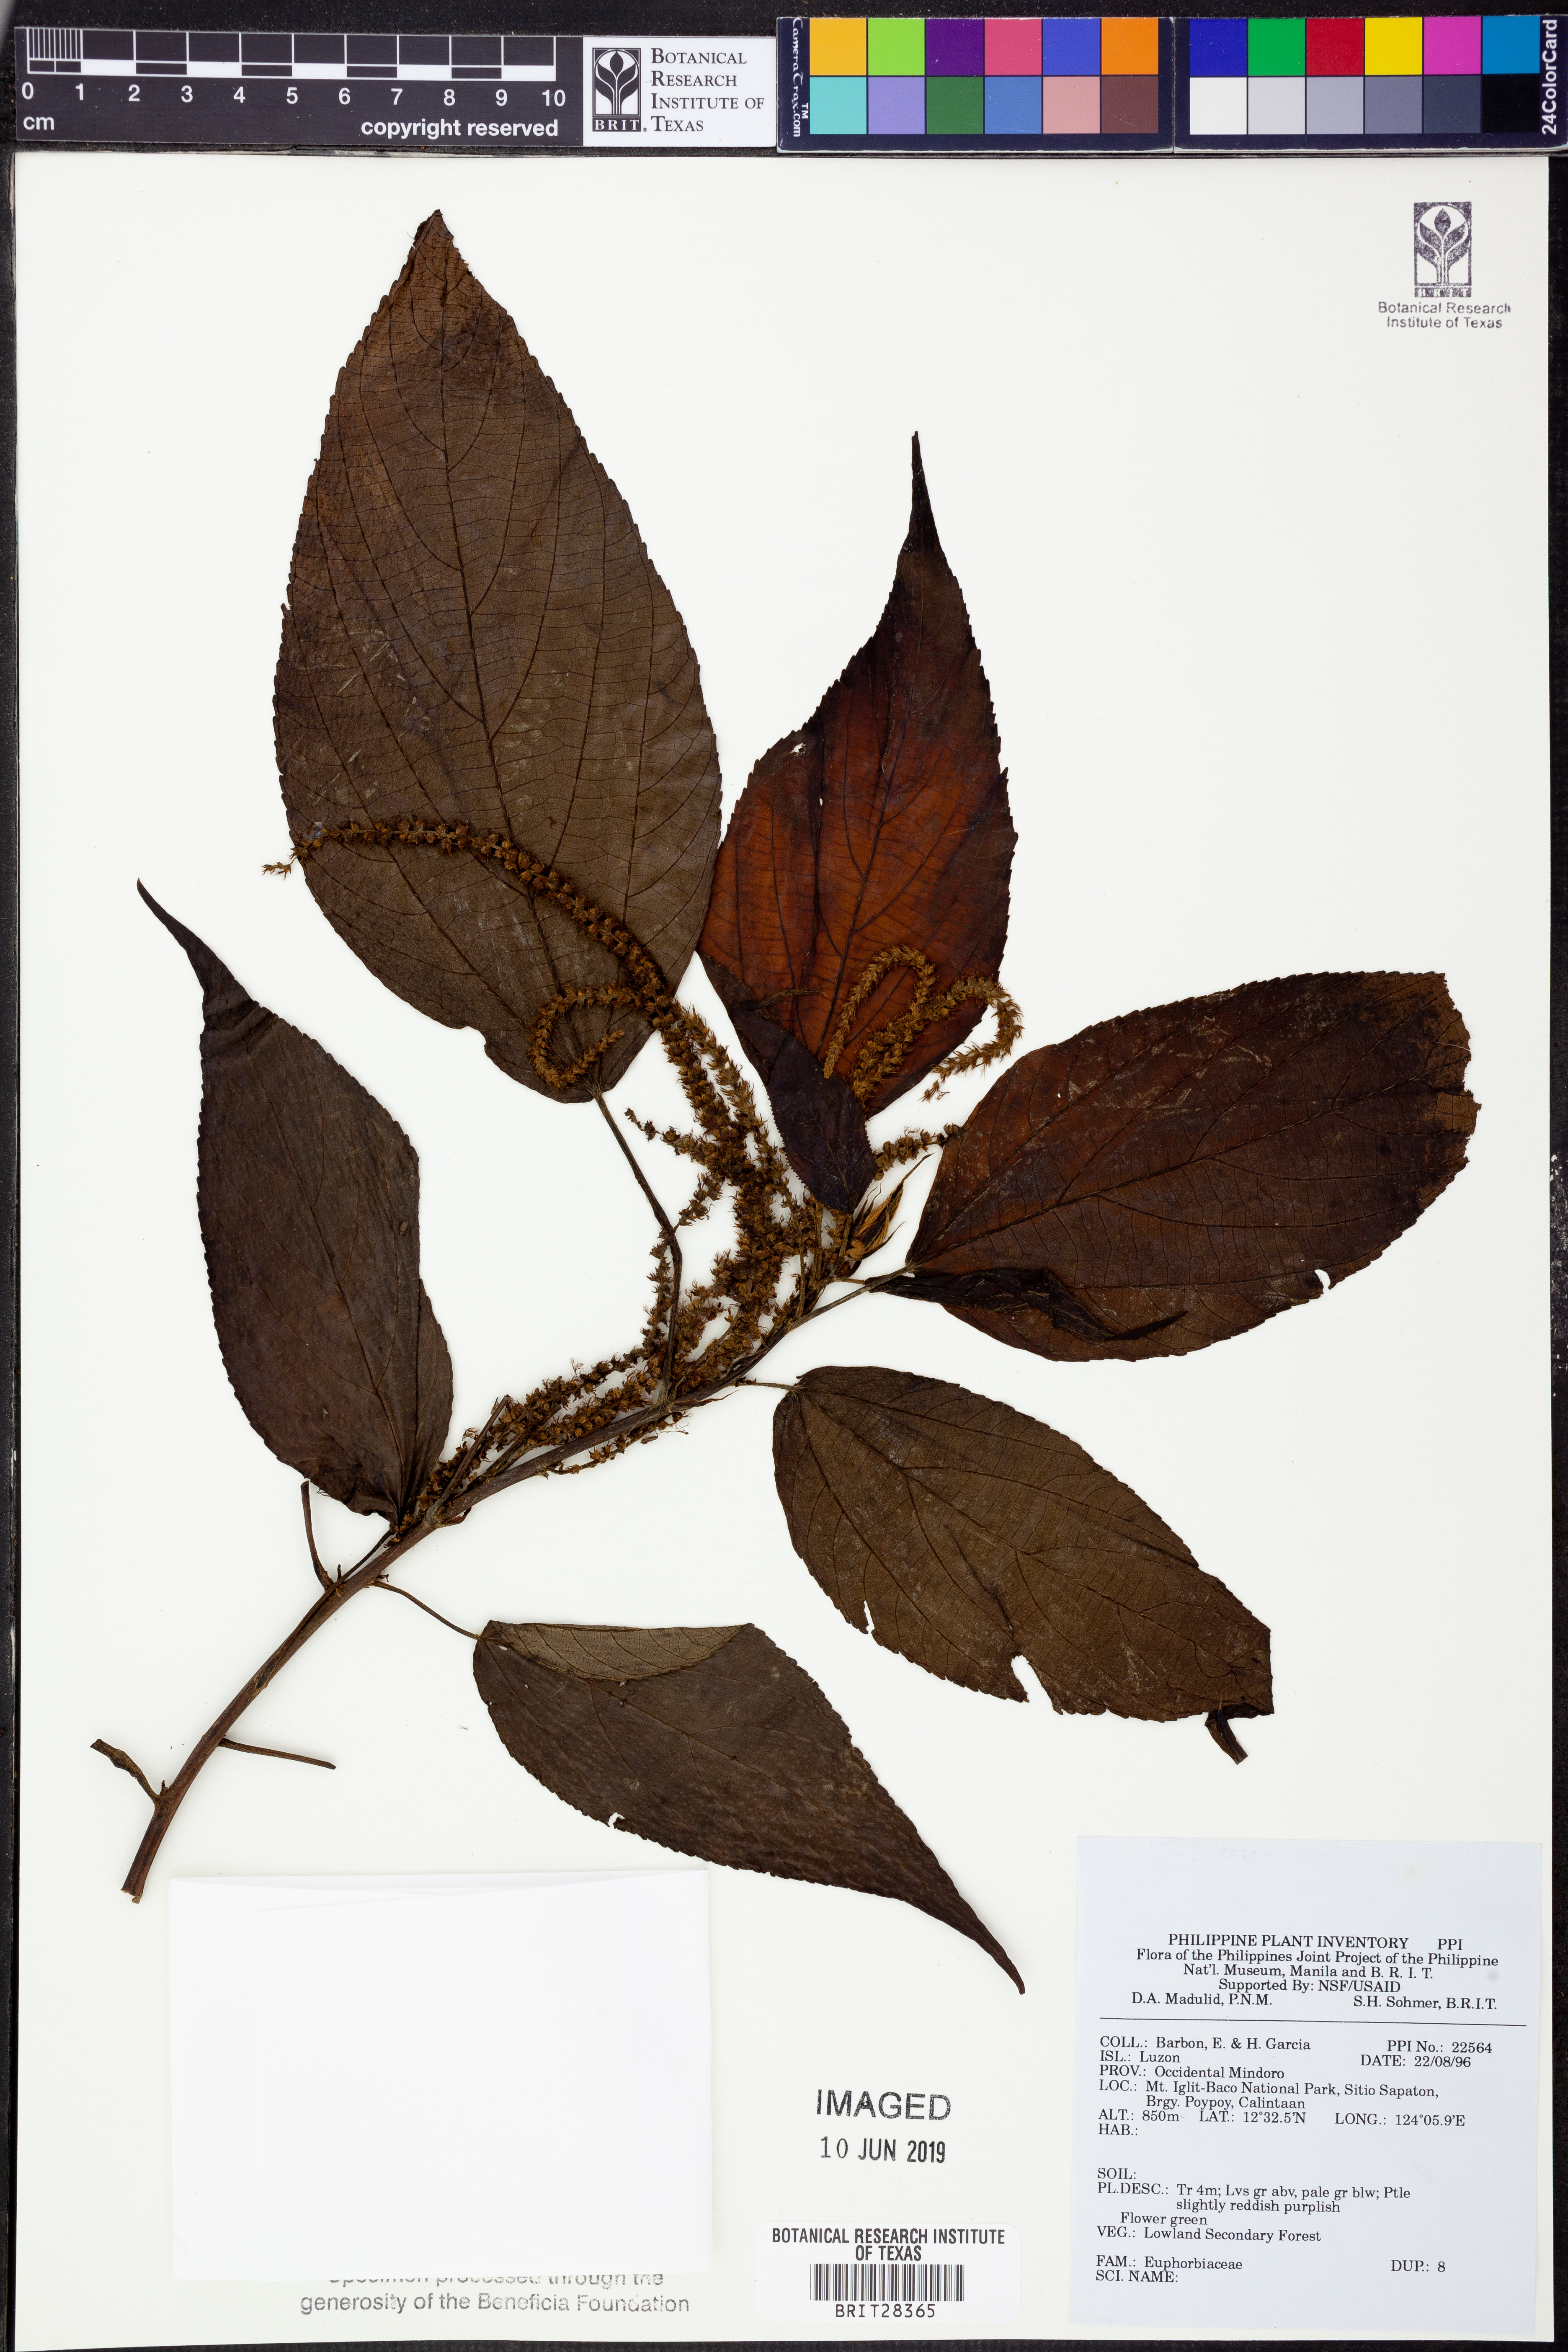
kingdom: Plantae
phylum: Tracheophyta
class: Magnoliopsida
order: Malpighiales
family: Euphorbiaceae
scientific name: Euphorbiaceae
